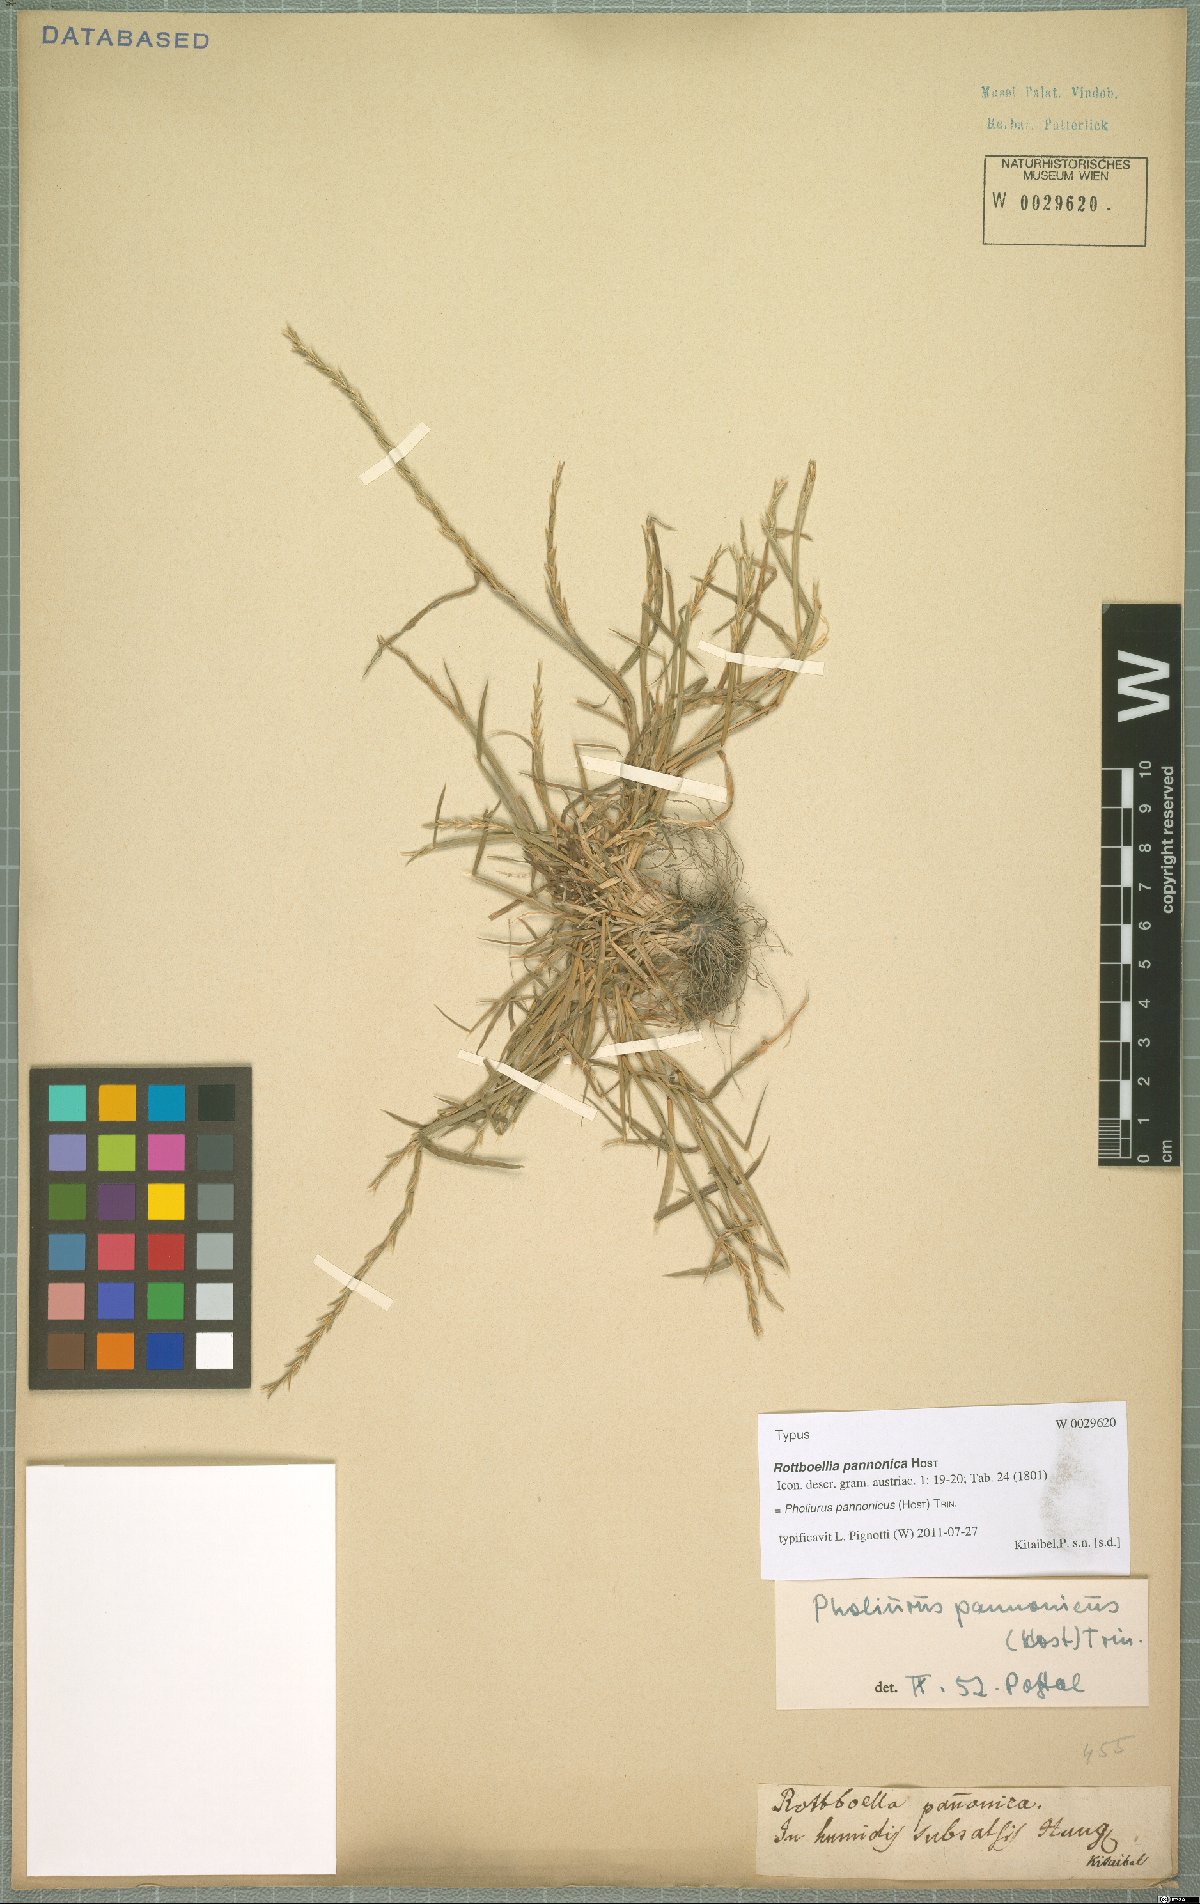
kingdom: Plantae
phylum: Tracheophyta
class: Liliopsida
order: Poales
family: Poaceae
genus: Pholiurus
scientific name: Pholiurus pannonicus
